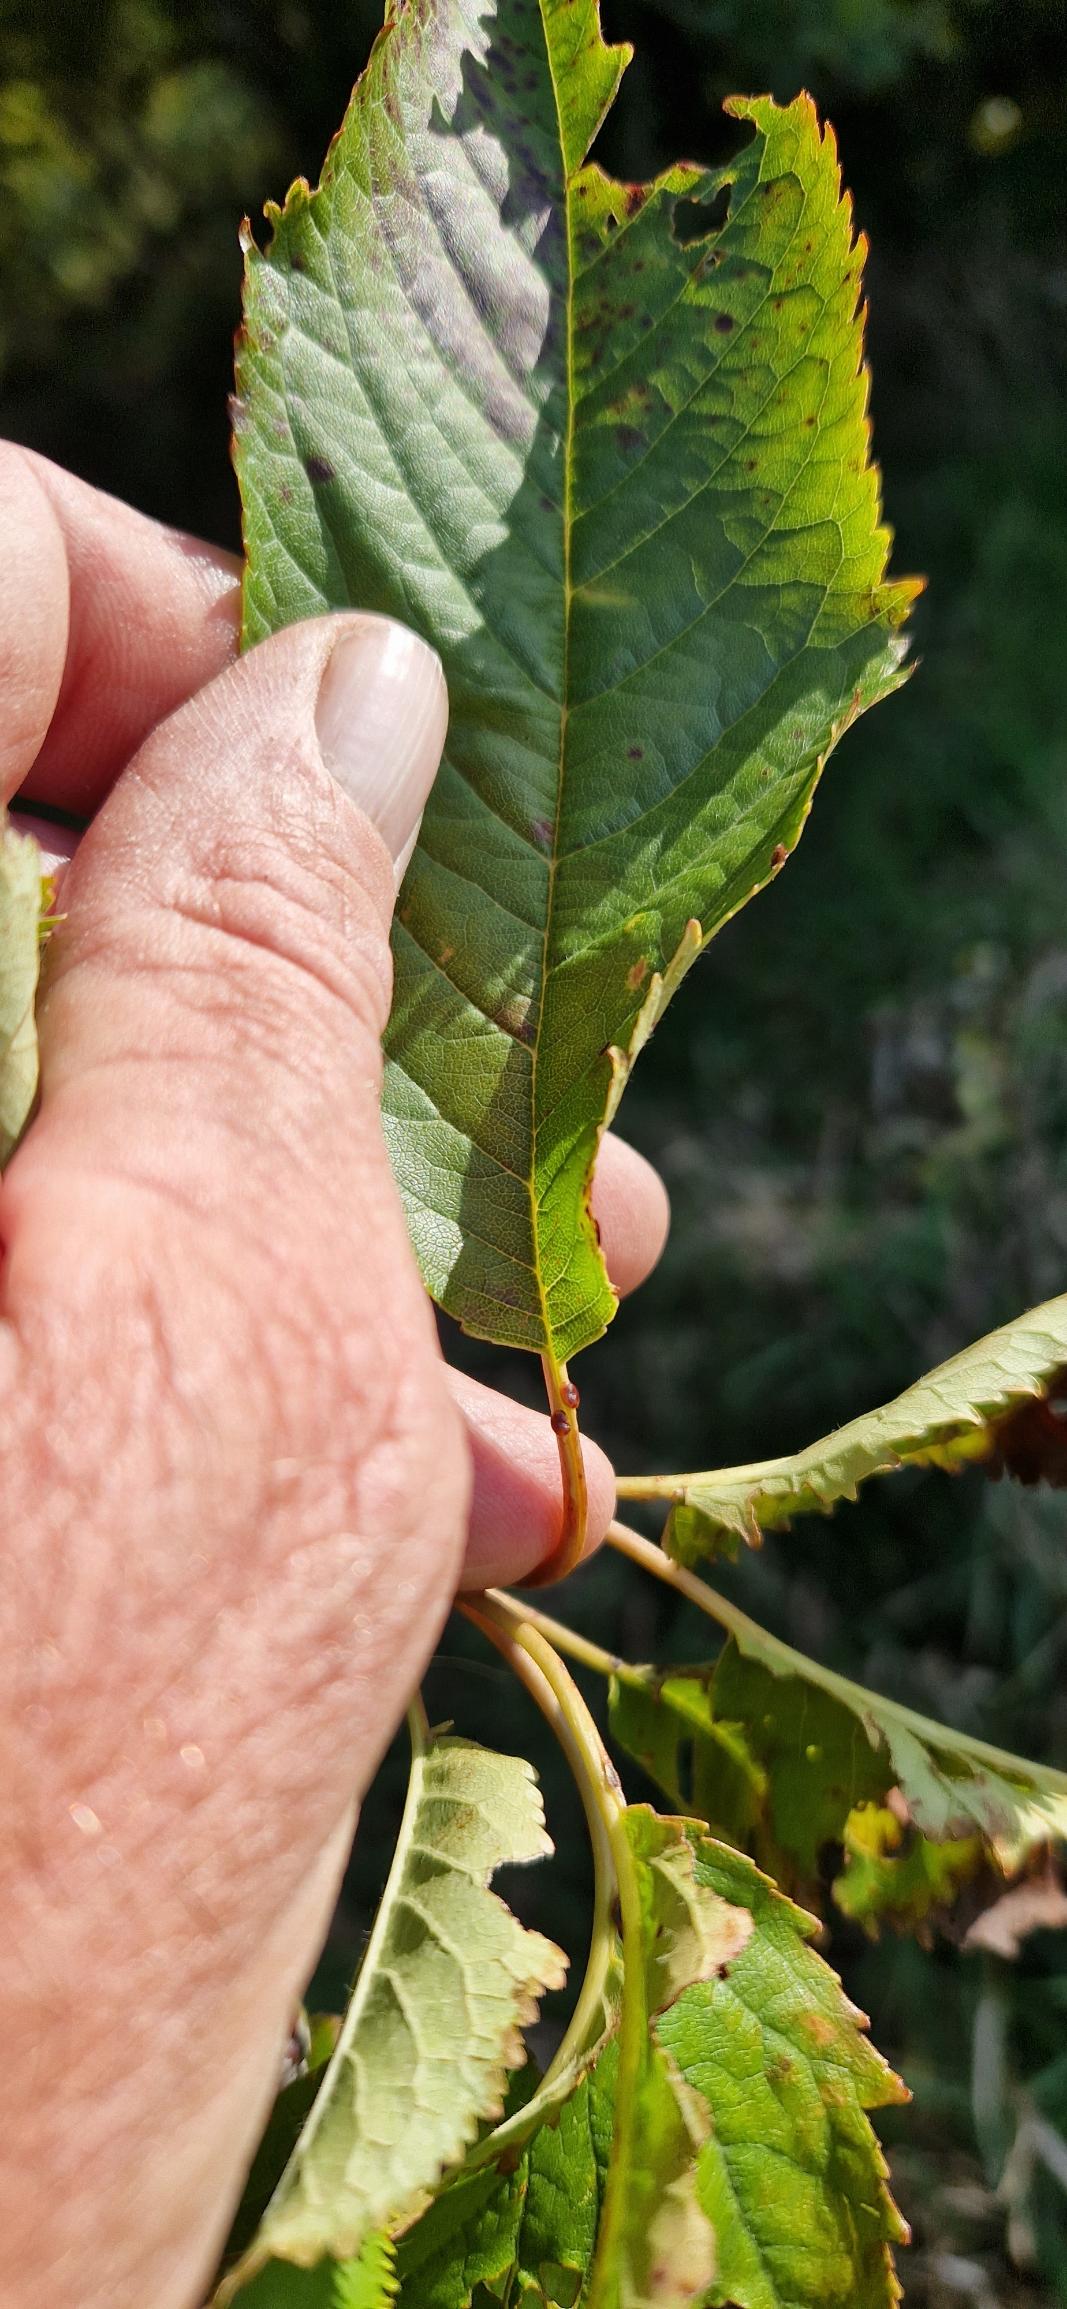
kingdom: Plantae
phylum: Tracheophyta
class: Magnoliopsida
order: Rosales
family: Rosaceae
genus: Prunus
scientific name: Prunus avium
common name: Fugle-kirsebær
